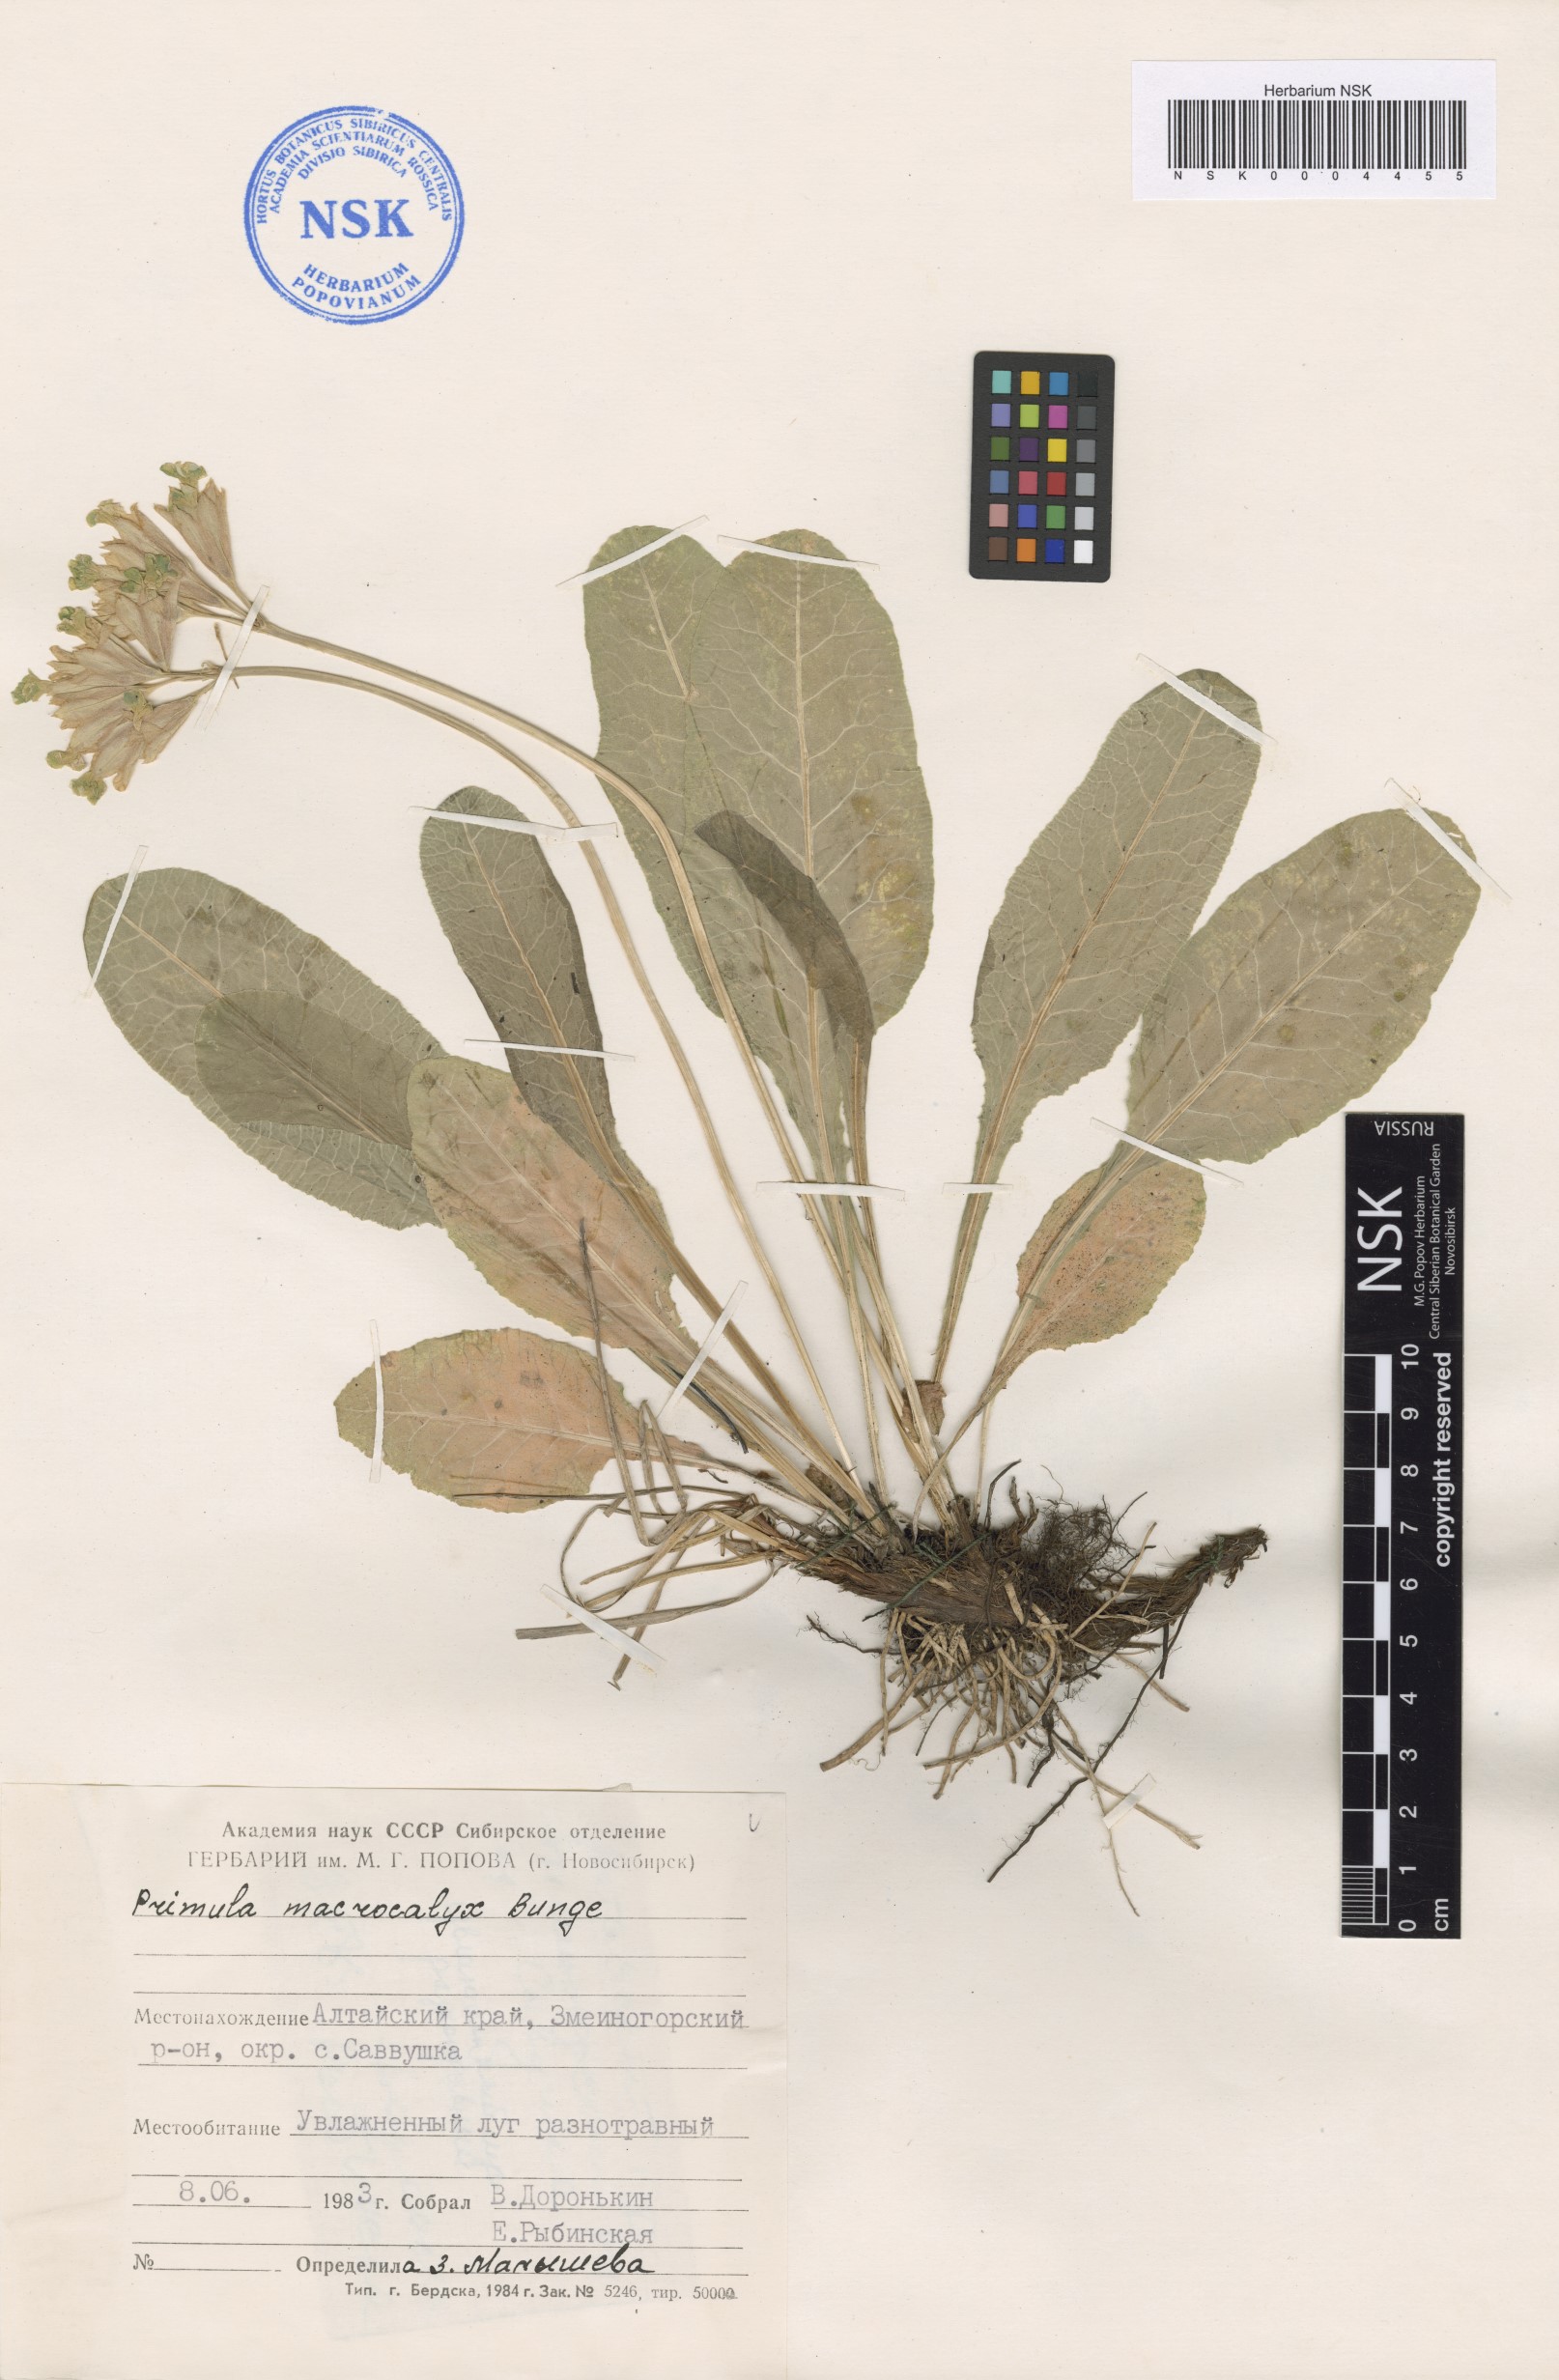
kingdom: Plantae
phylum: Tracheophyta
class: Magnoliopsida
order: Ericales
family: Primulaceae
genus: Primula
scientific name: Primula veris
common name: Cowslip
